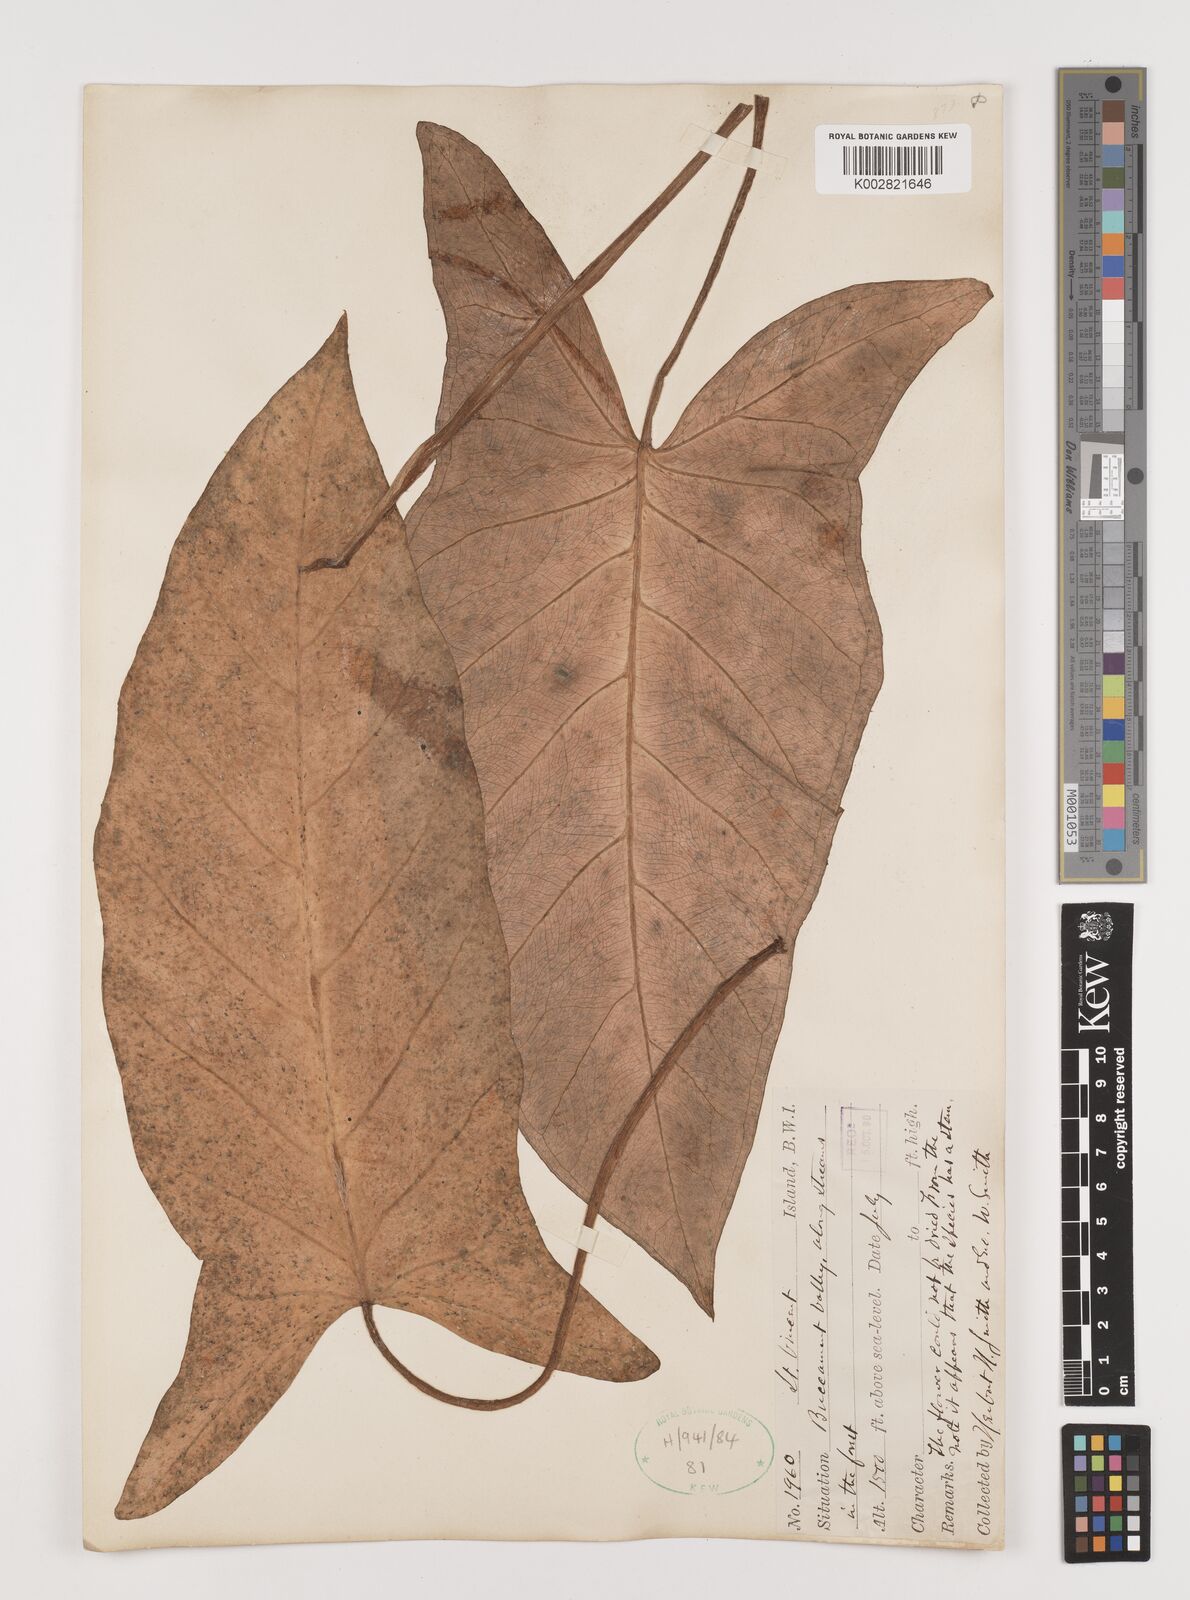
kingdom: Plantae
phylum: Tracheophyta
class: Liliopsida
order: Alismatales
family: Araceae
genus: Xanthosoma
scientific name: Xanthosoma
